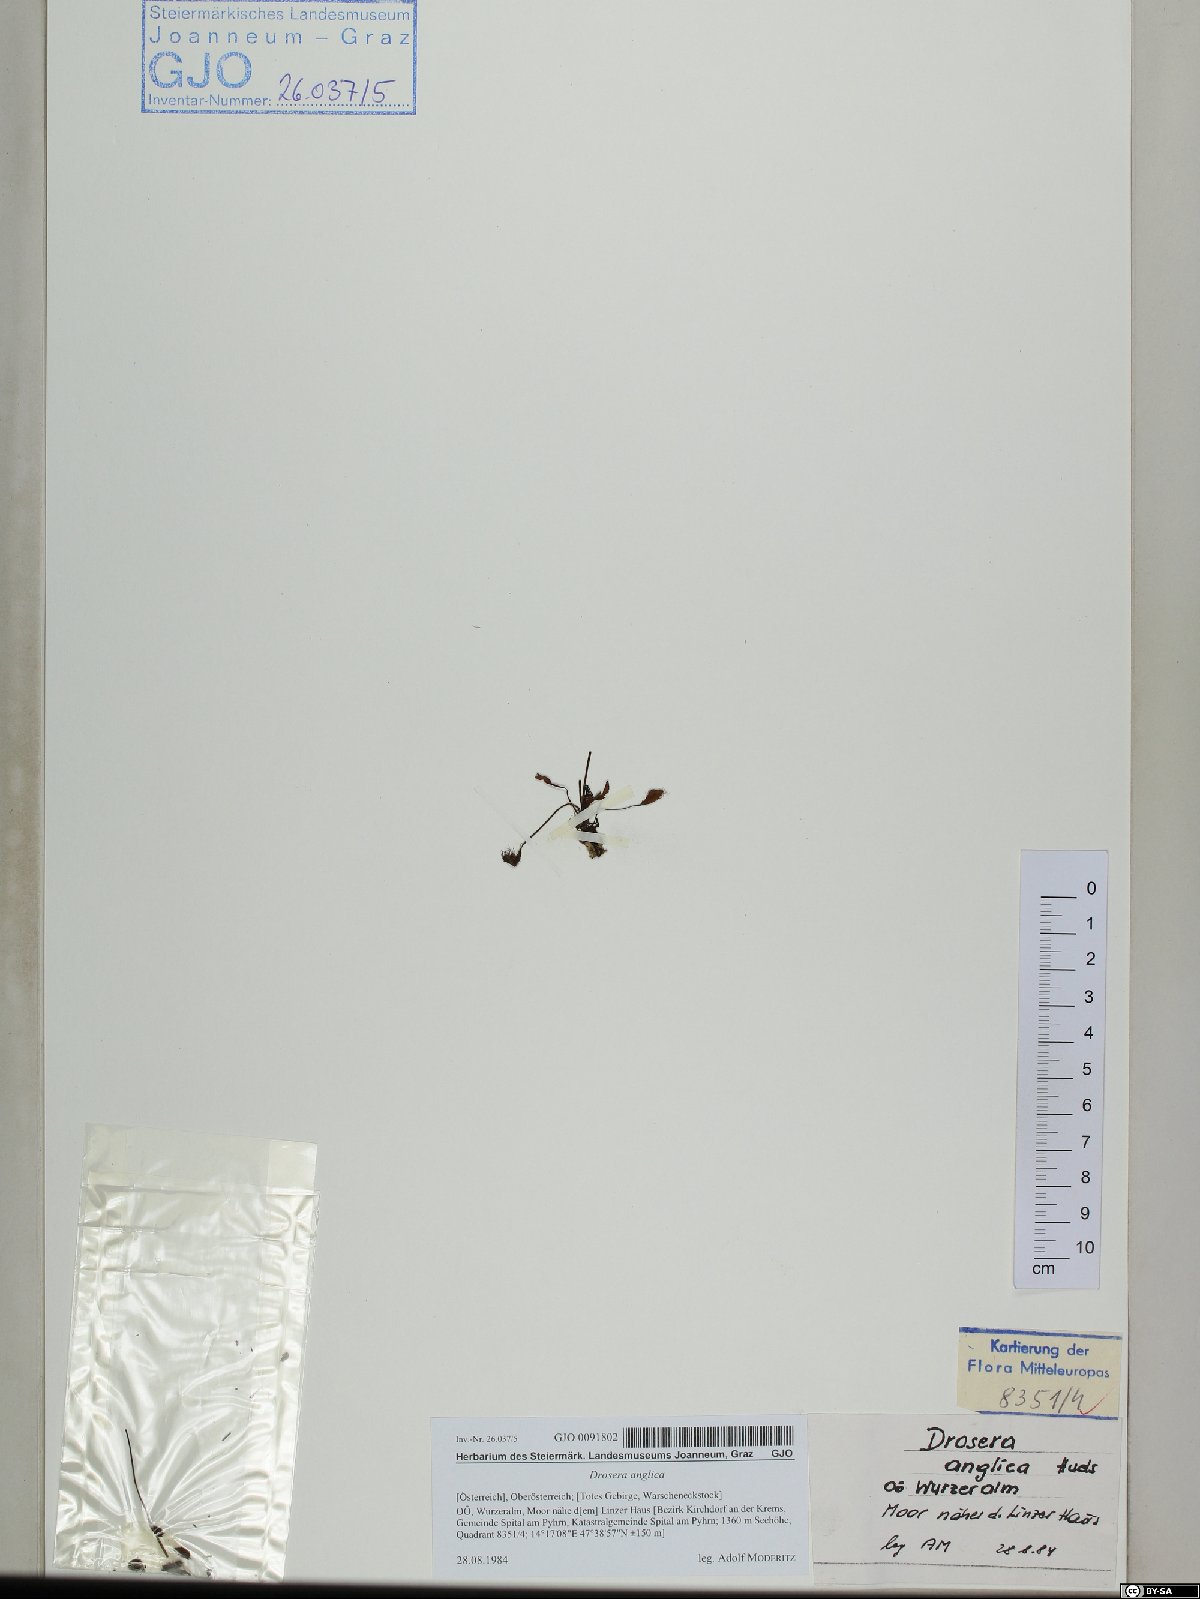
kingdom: Plantae
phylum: Tracheophyta
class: Magnoliopsida
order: Caryophyllales
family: Droseraceae
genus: Drosera
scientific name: Drosera anglica
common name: Great sundew
